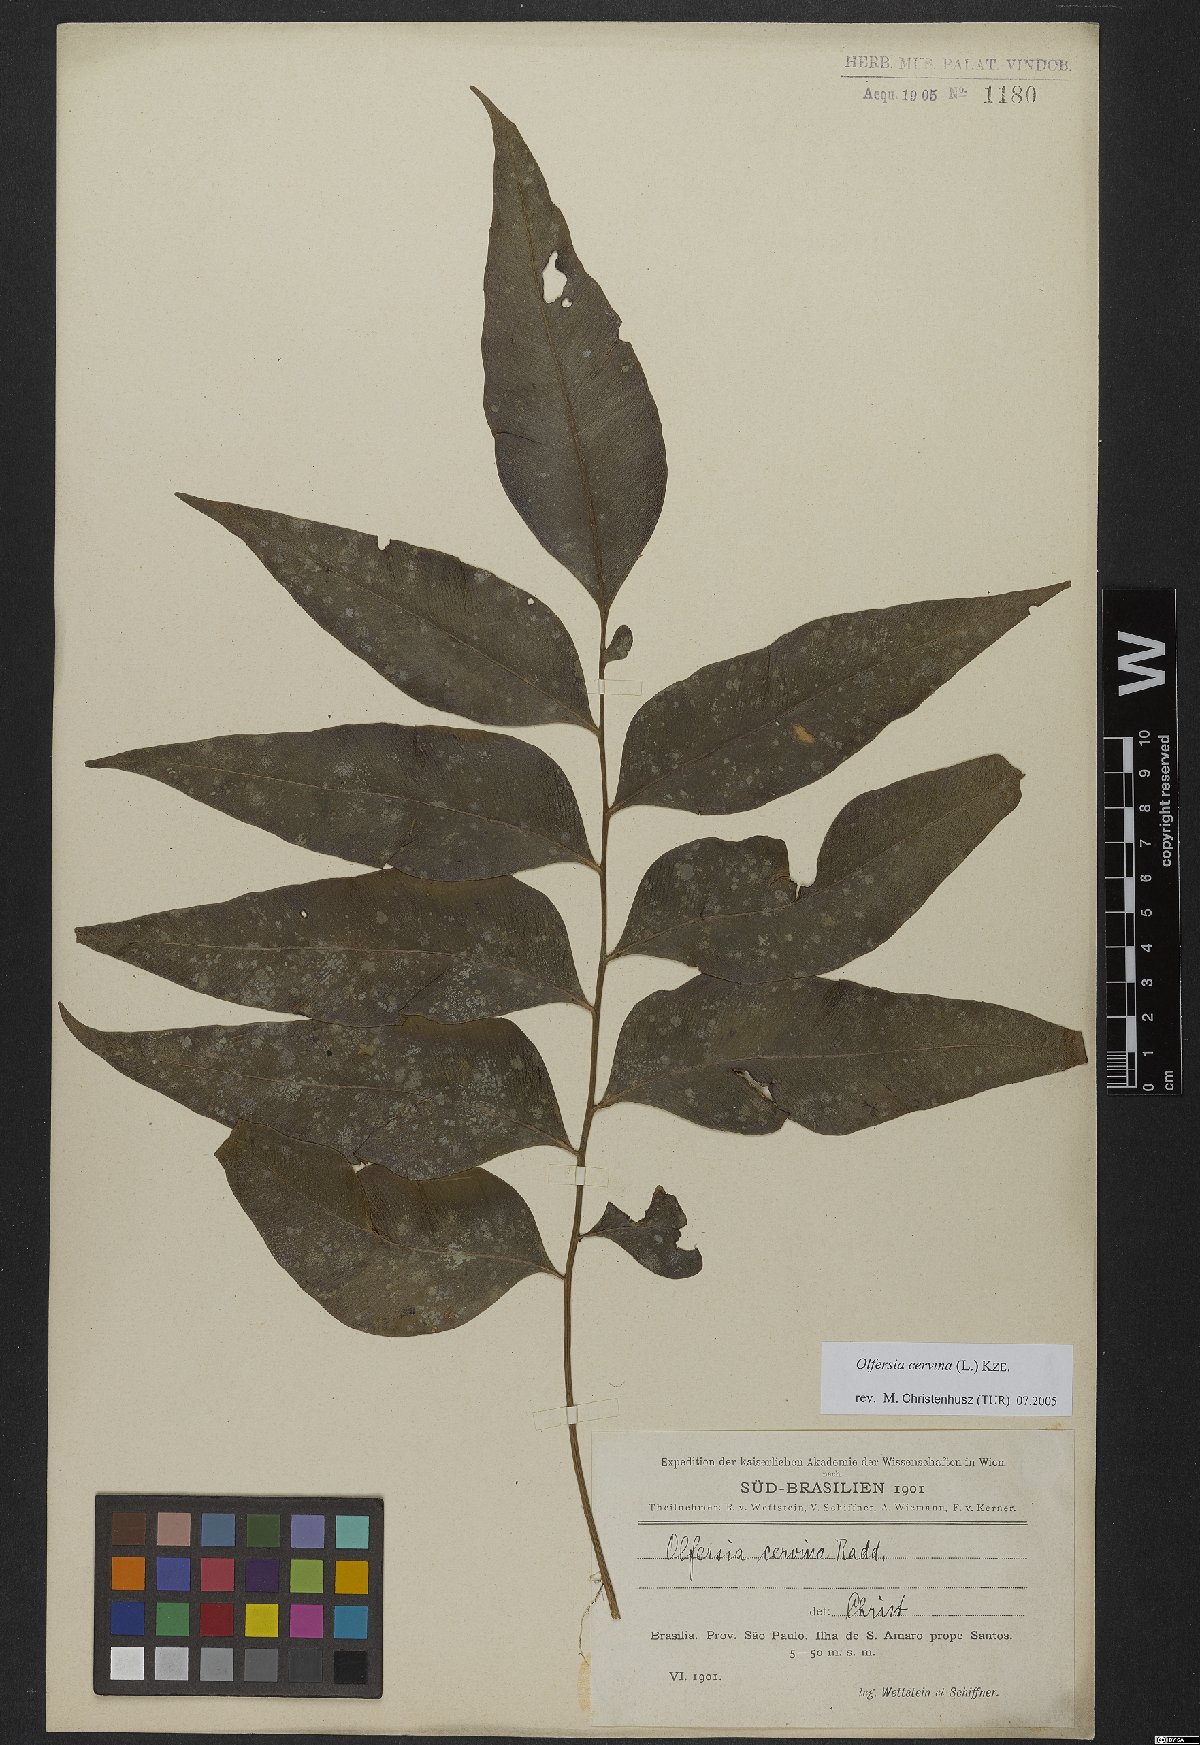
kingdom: Plantae
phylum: Tracheophyta
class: Polypodiopsida
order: Polypodiales
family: Dryopteridaceae
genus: Olfersia
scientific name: Olfersia cervina
